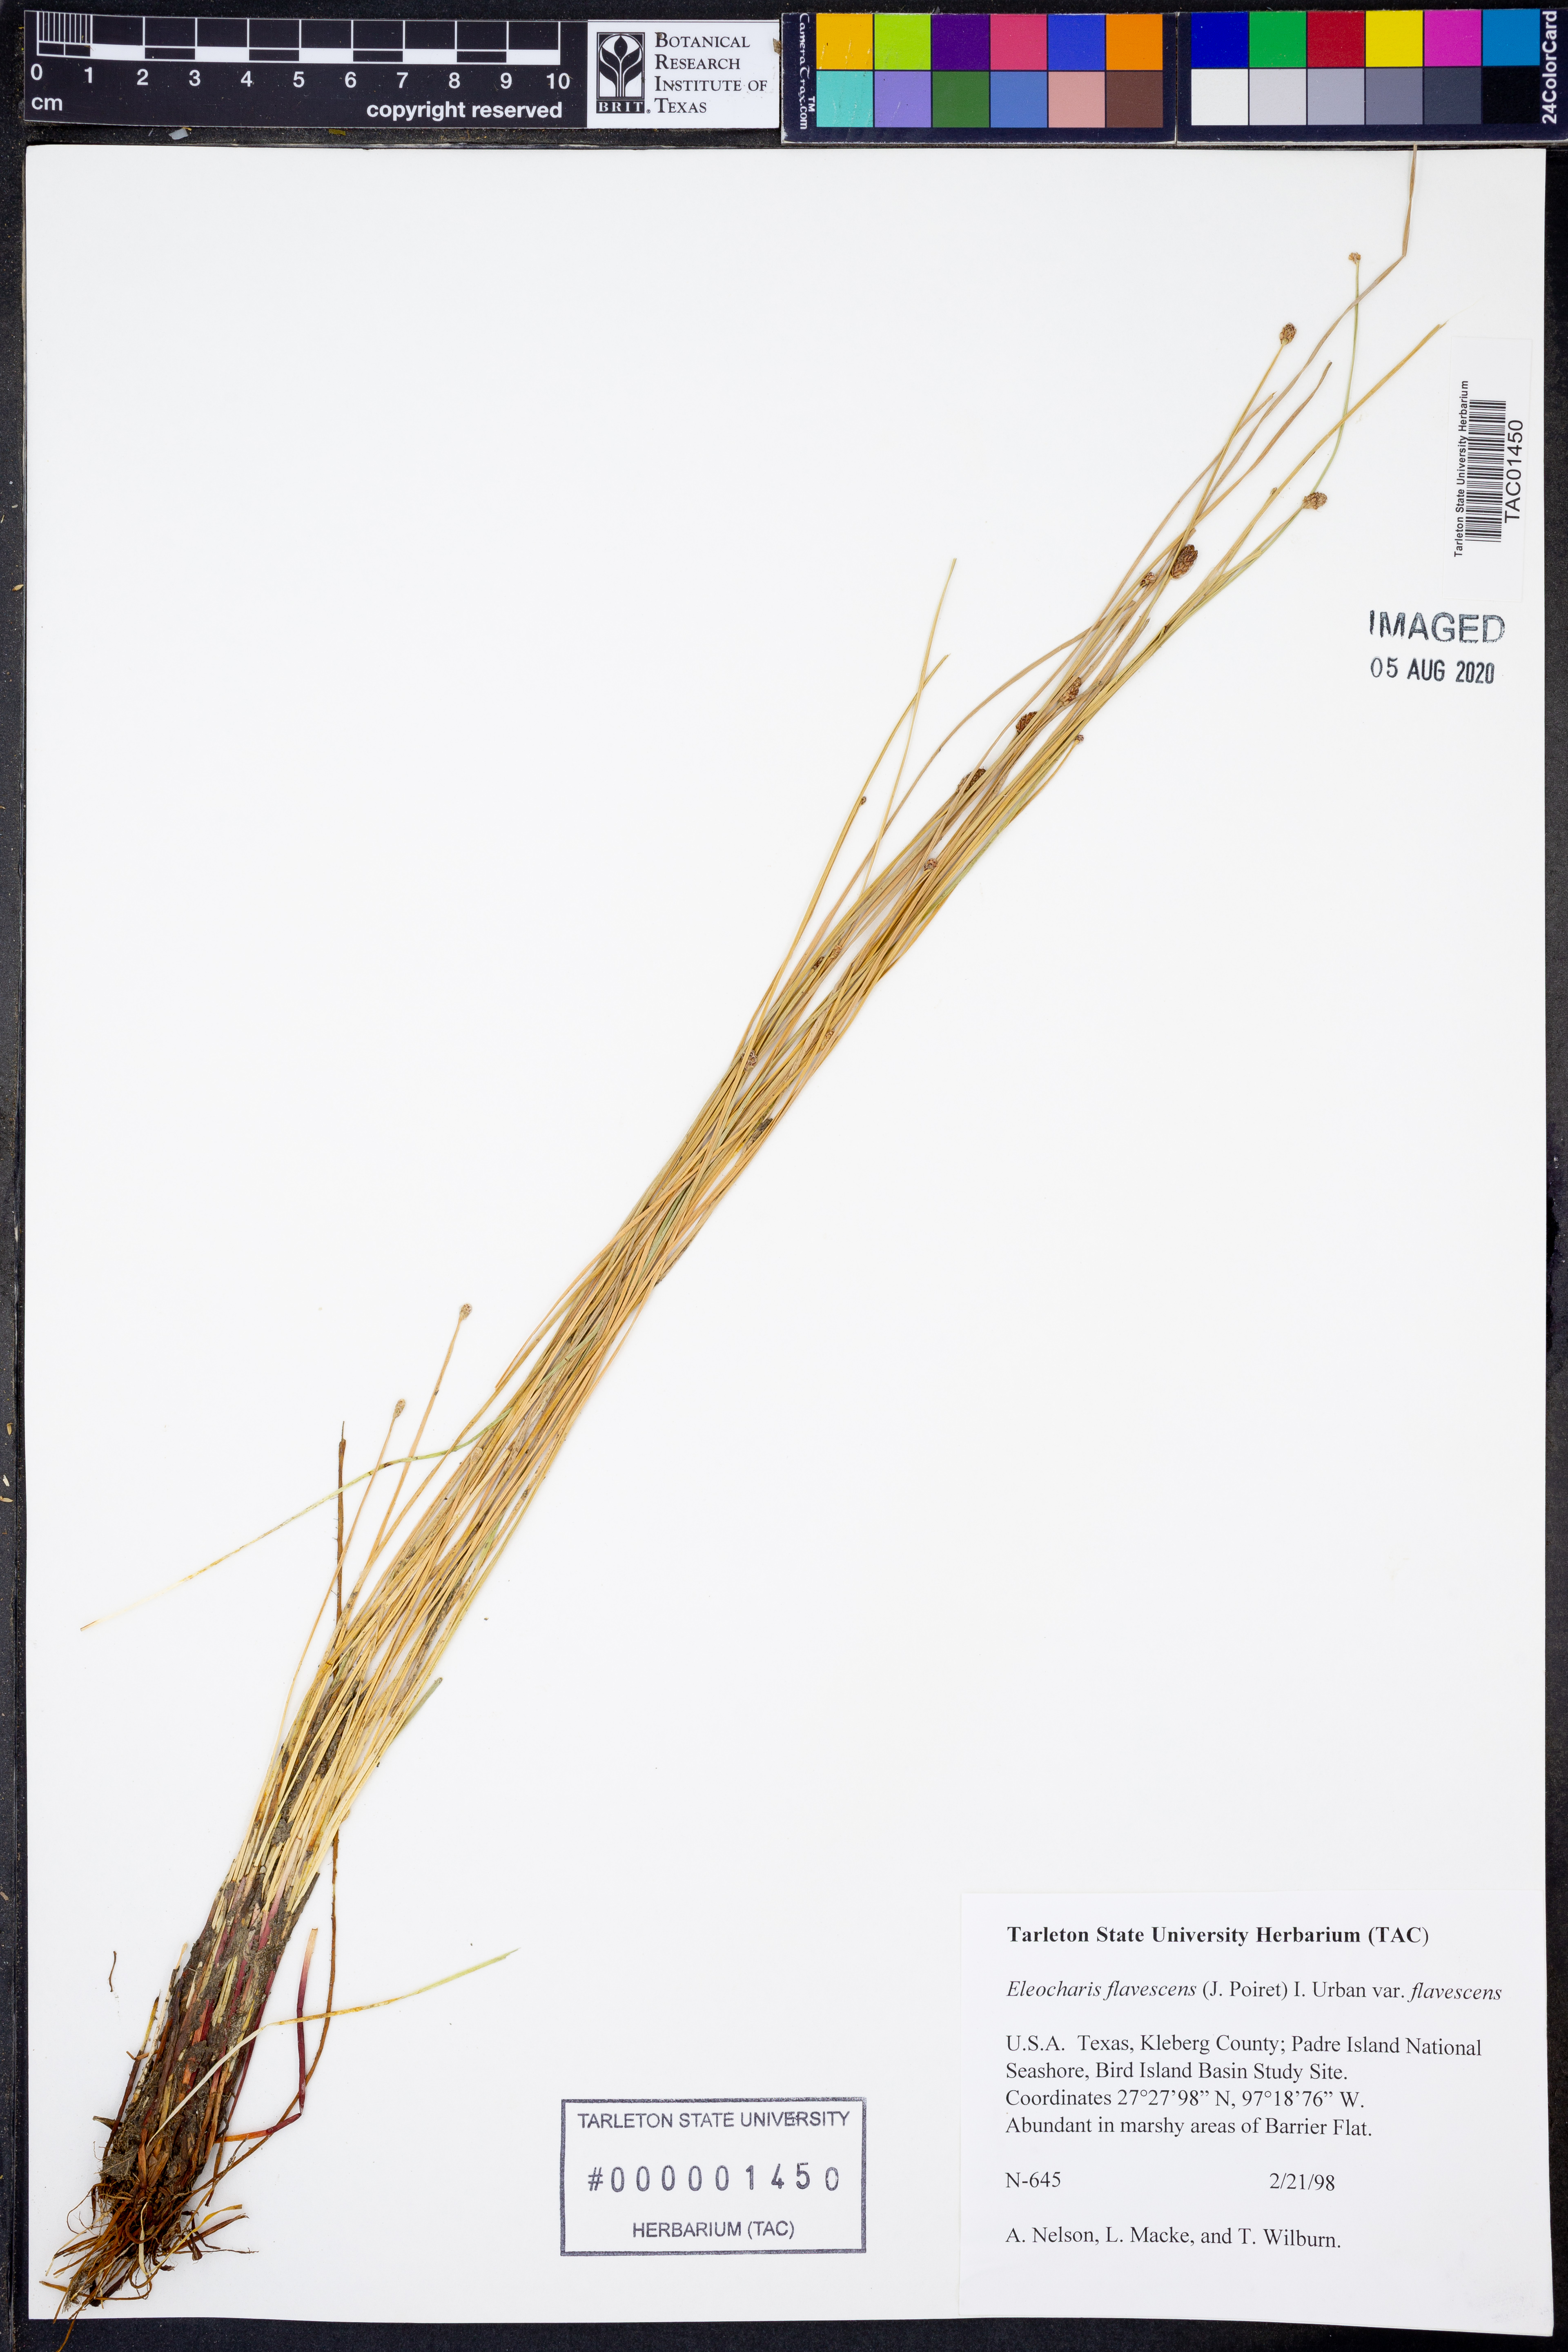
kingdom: Plantae
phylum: Tracheophyta
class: Liliopsida
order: Poales
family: Cyperaceae
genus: Eleocharis
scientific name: Eleocharis flavescens
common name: Yellow spikerush
